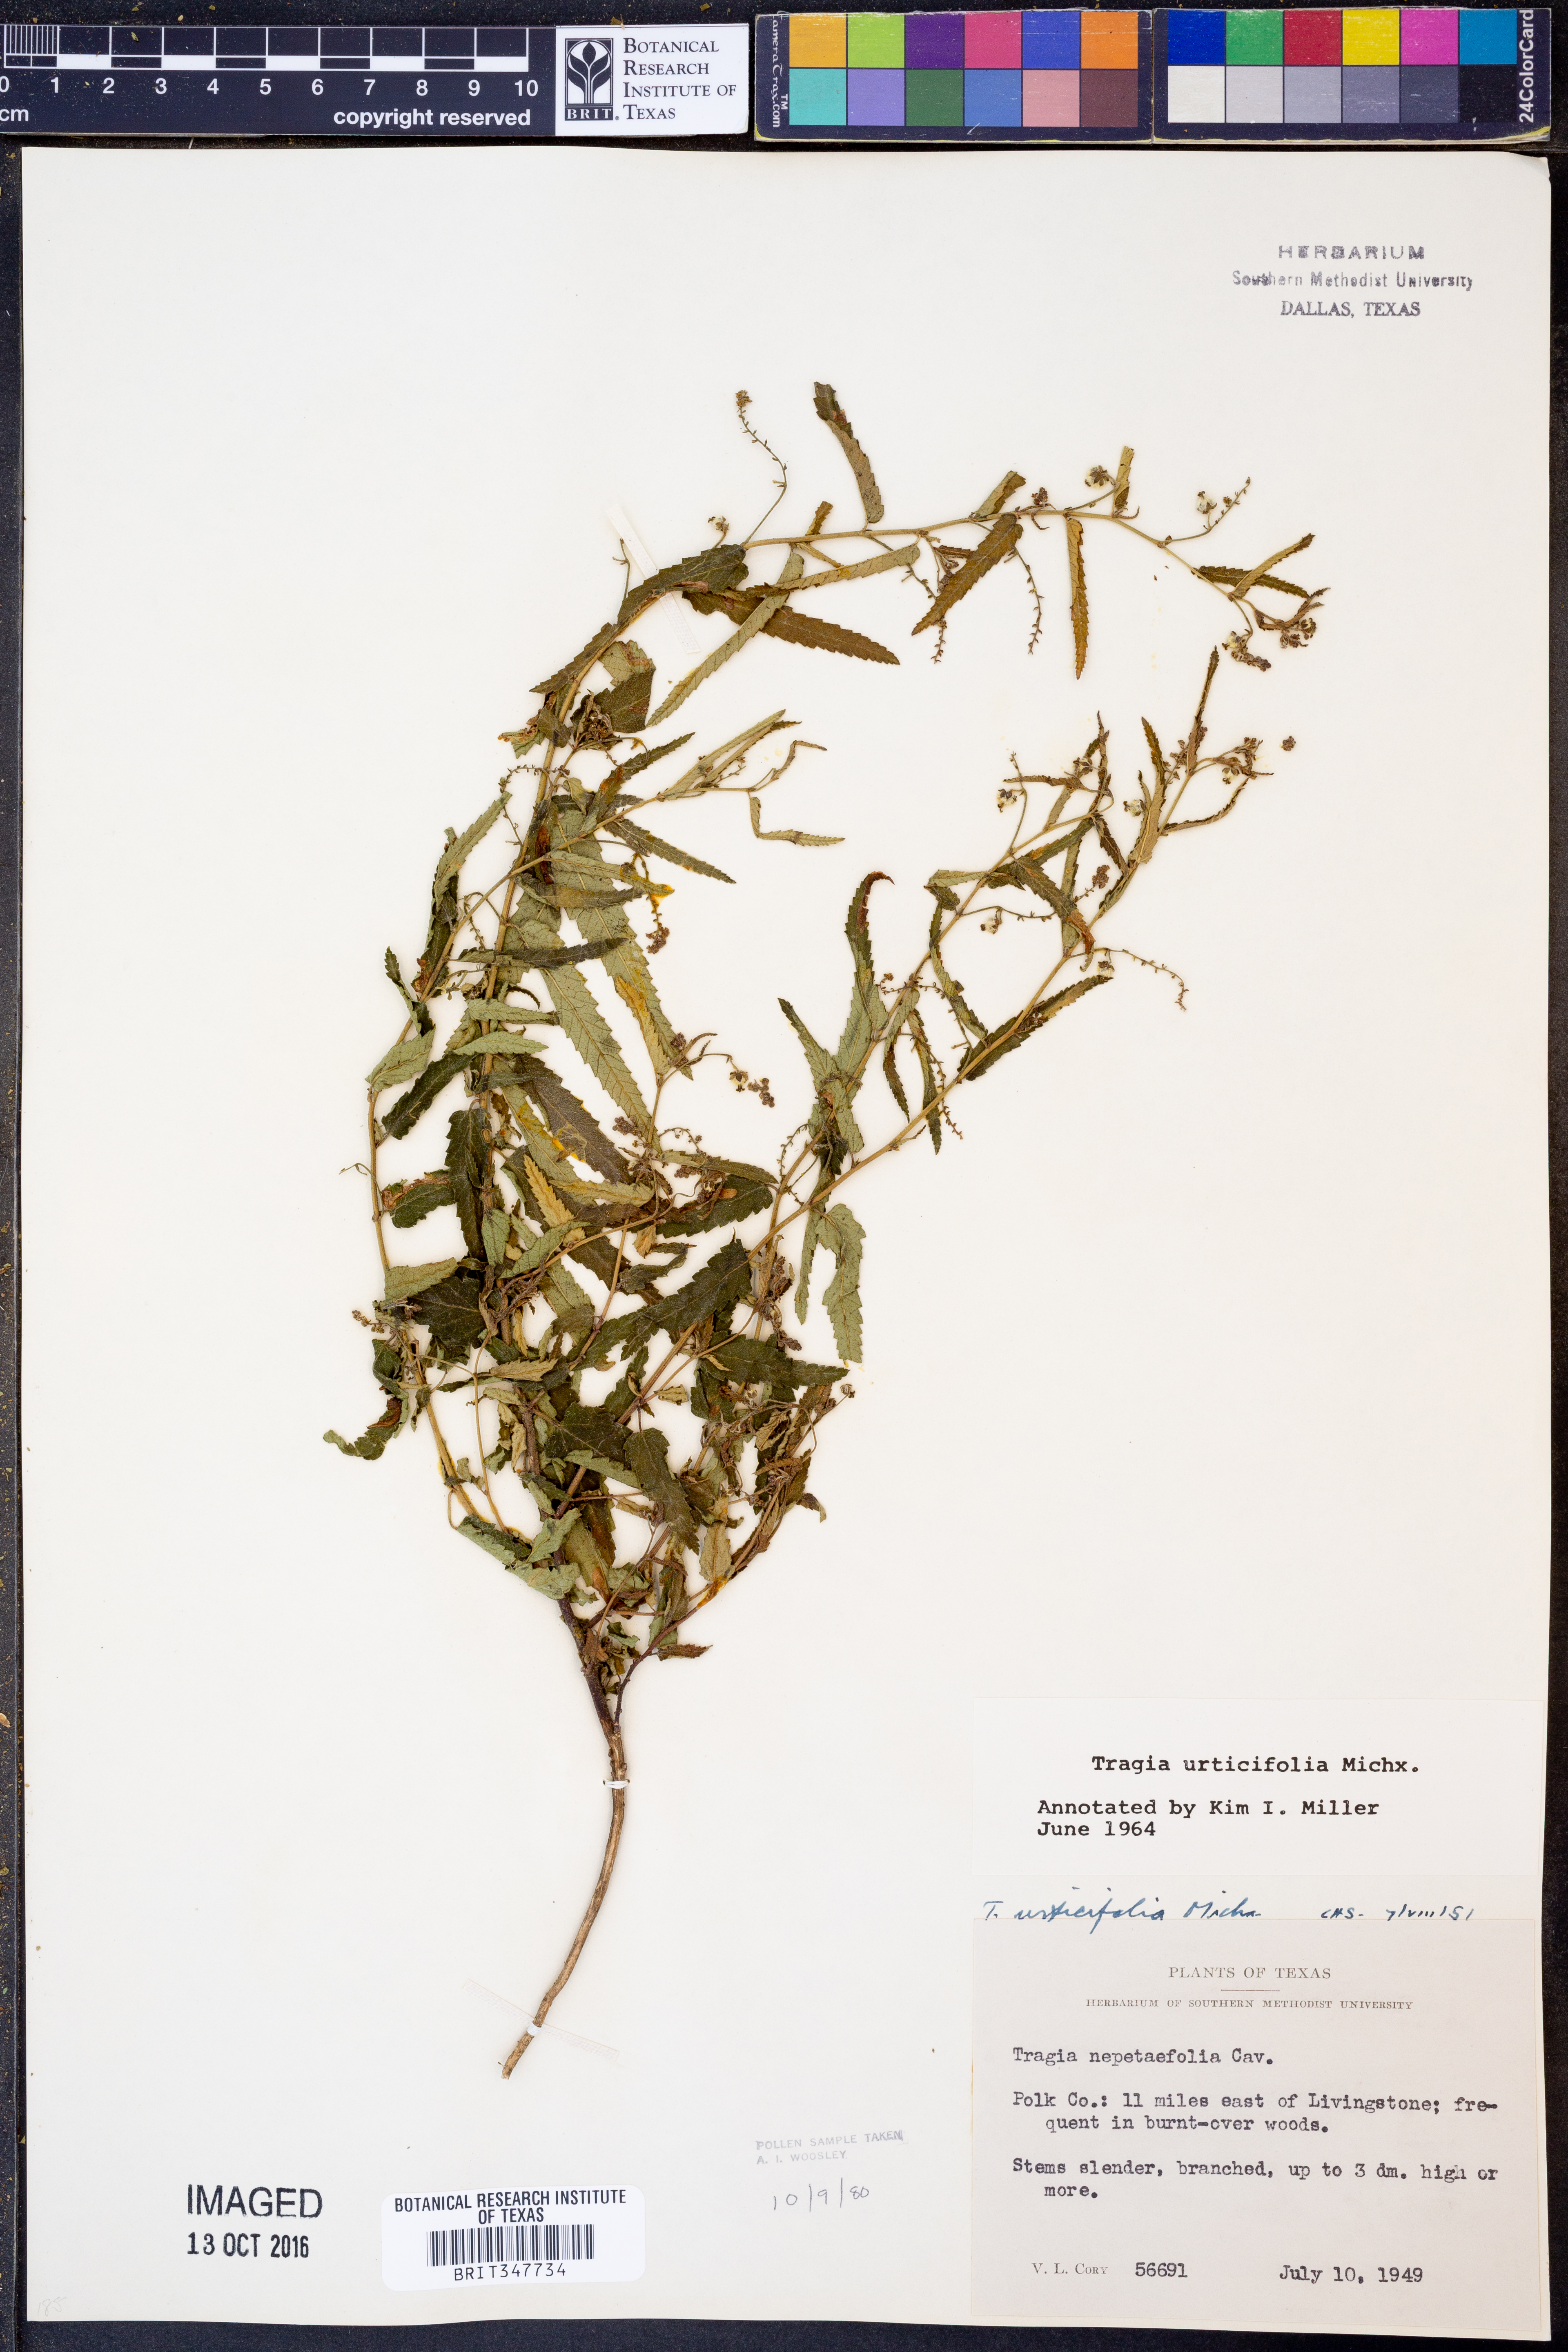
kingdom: Plantae
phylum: Tracheophyta
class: Magnoliopsida
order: Malpighiales
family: Euphorbiaceae
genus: Tragia
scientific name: Tragia urticifolia
